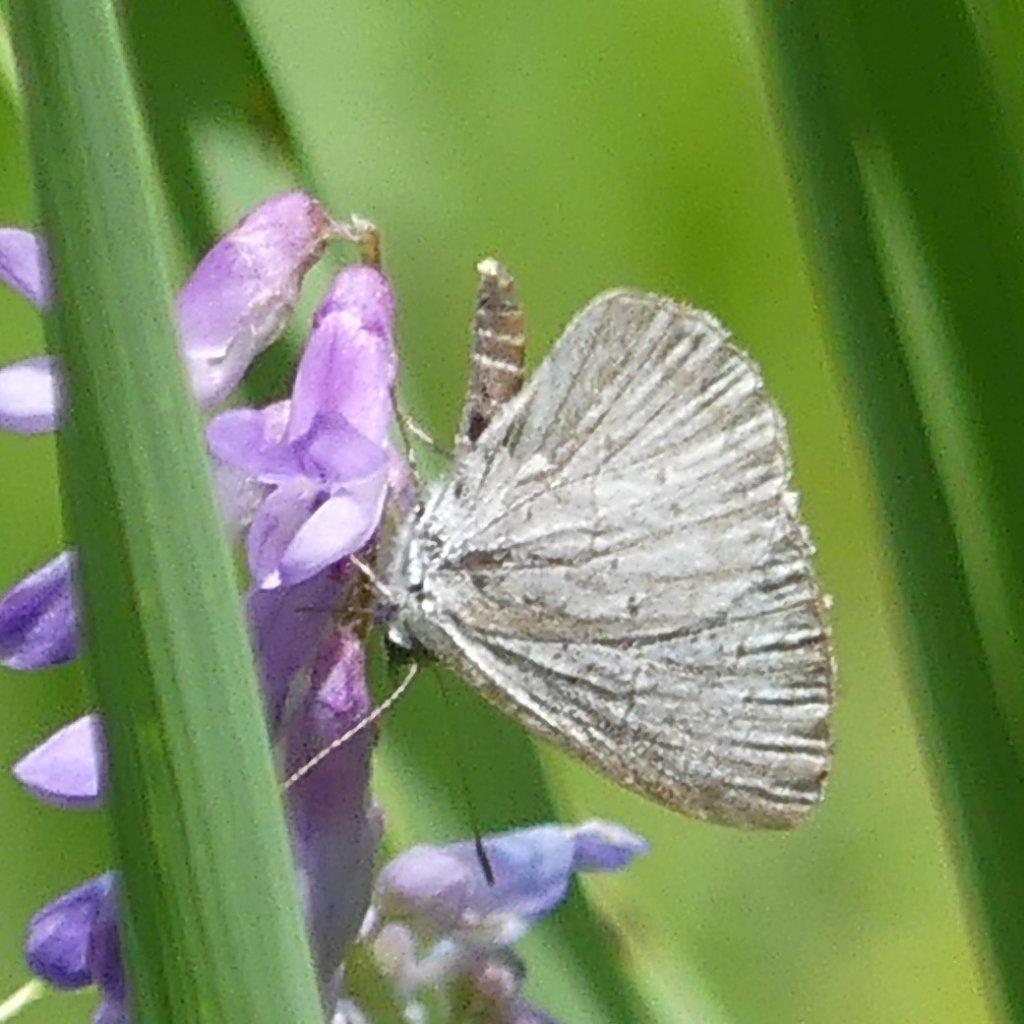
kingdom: Animalia
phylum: Arthropoda
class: Insecta
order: Lepidoptera
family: Lycaenidae
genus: Cyaniris
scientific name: Cyaniris neglecta
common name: Summer Azure
